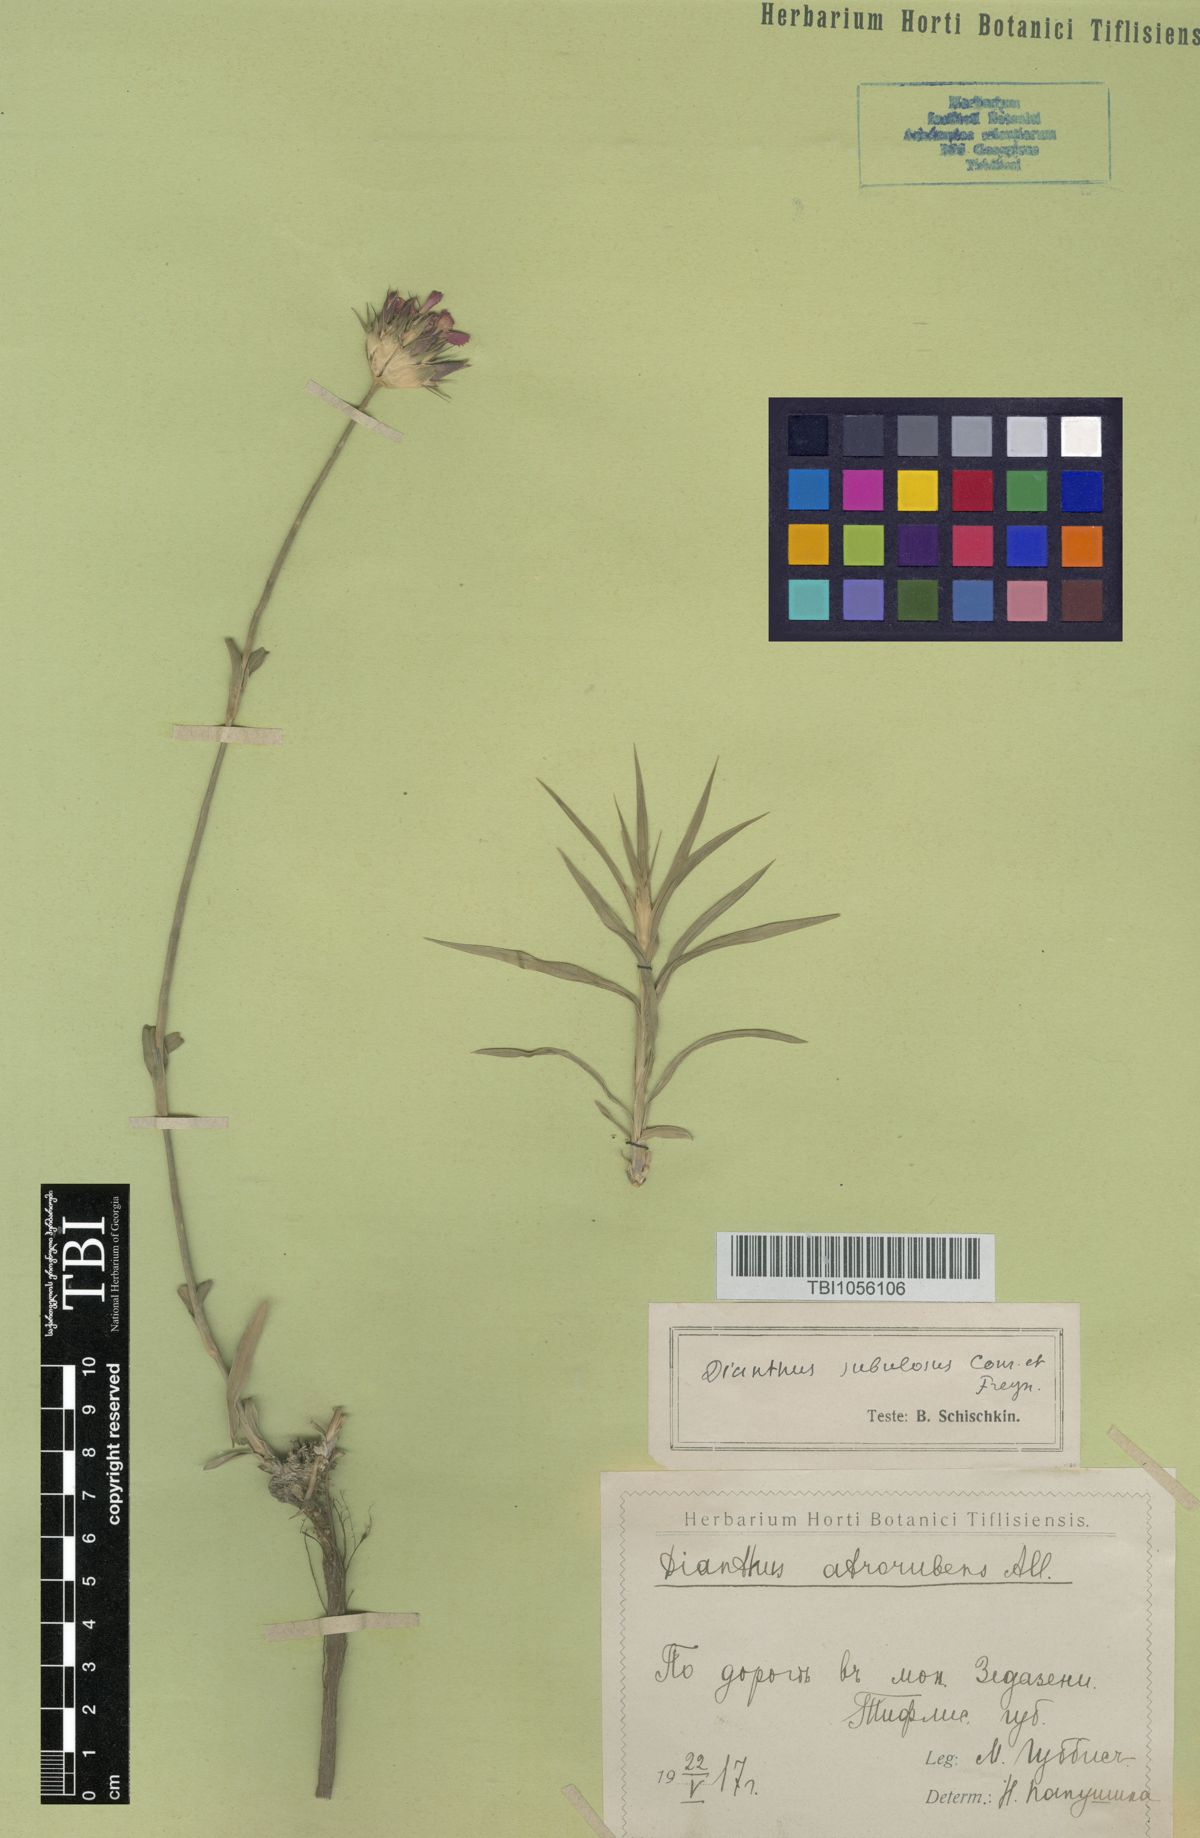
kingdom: Plantae
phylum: Tracheophyta
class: Magnoliopsida
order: Caryophyllales
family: Caryophyllaceae
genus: Dianthus
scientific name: Dianthus subulosus
